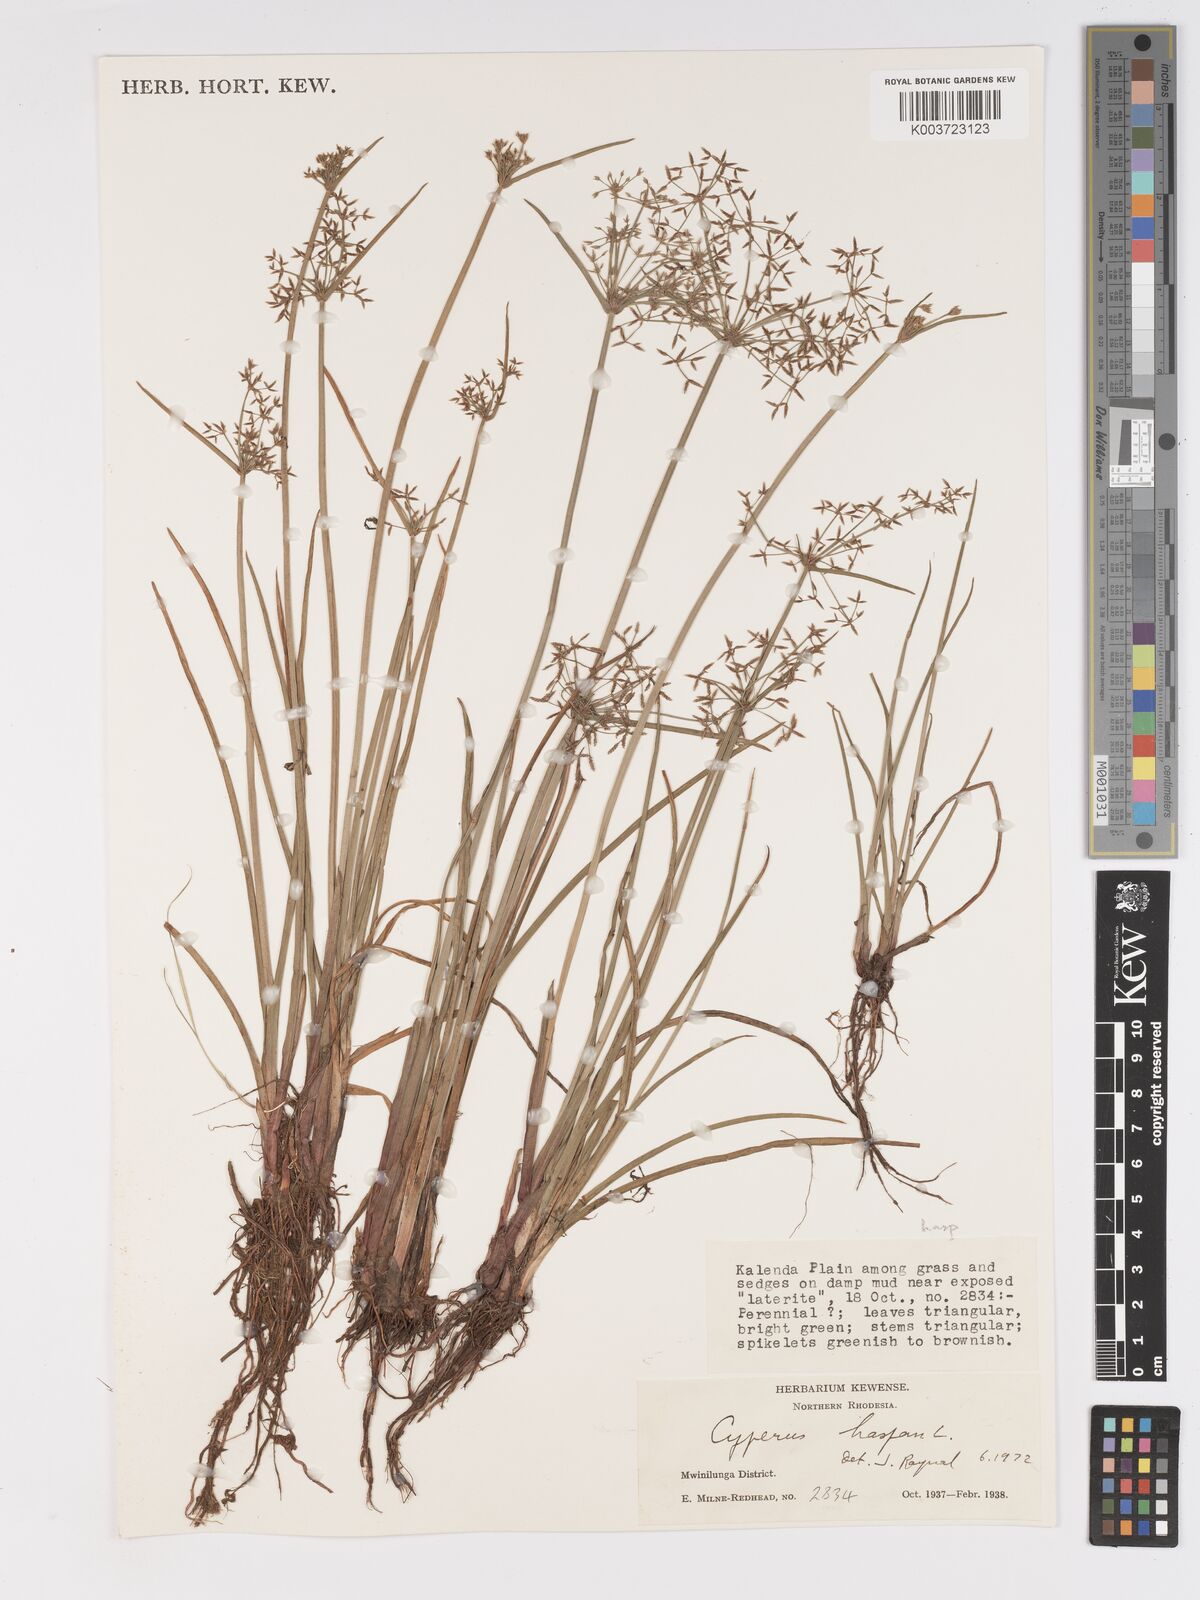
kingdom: Plantae
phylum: Tracheophyta
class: Liliopsida
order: Poales
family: Cyperaceae
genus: Cyperus
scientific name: Cyperus haspan
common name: Haspan flatsedge
